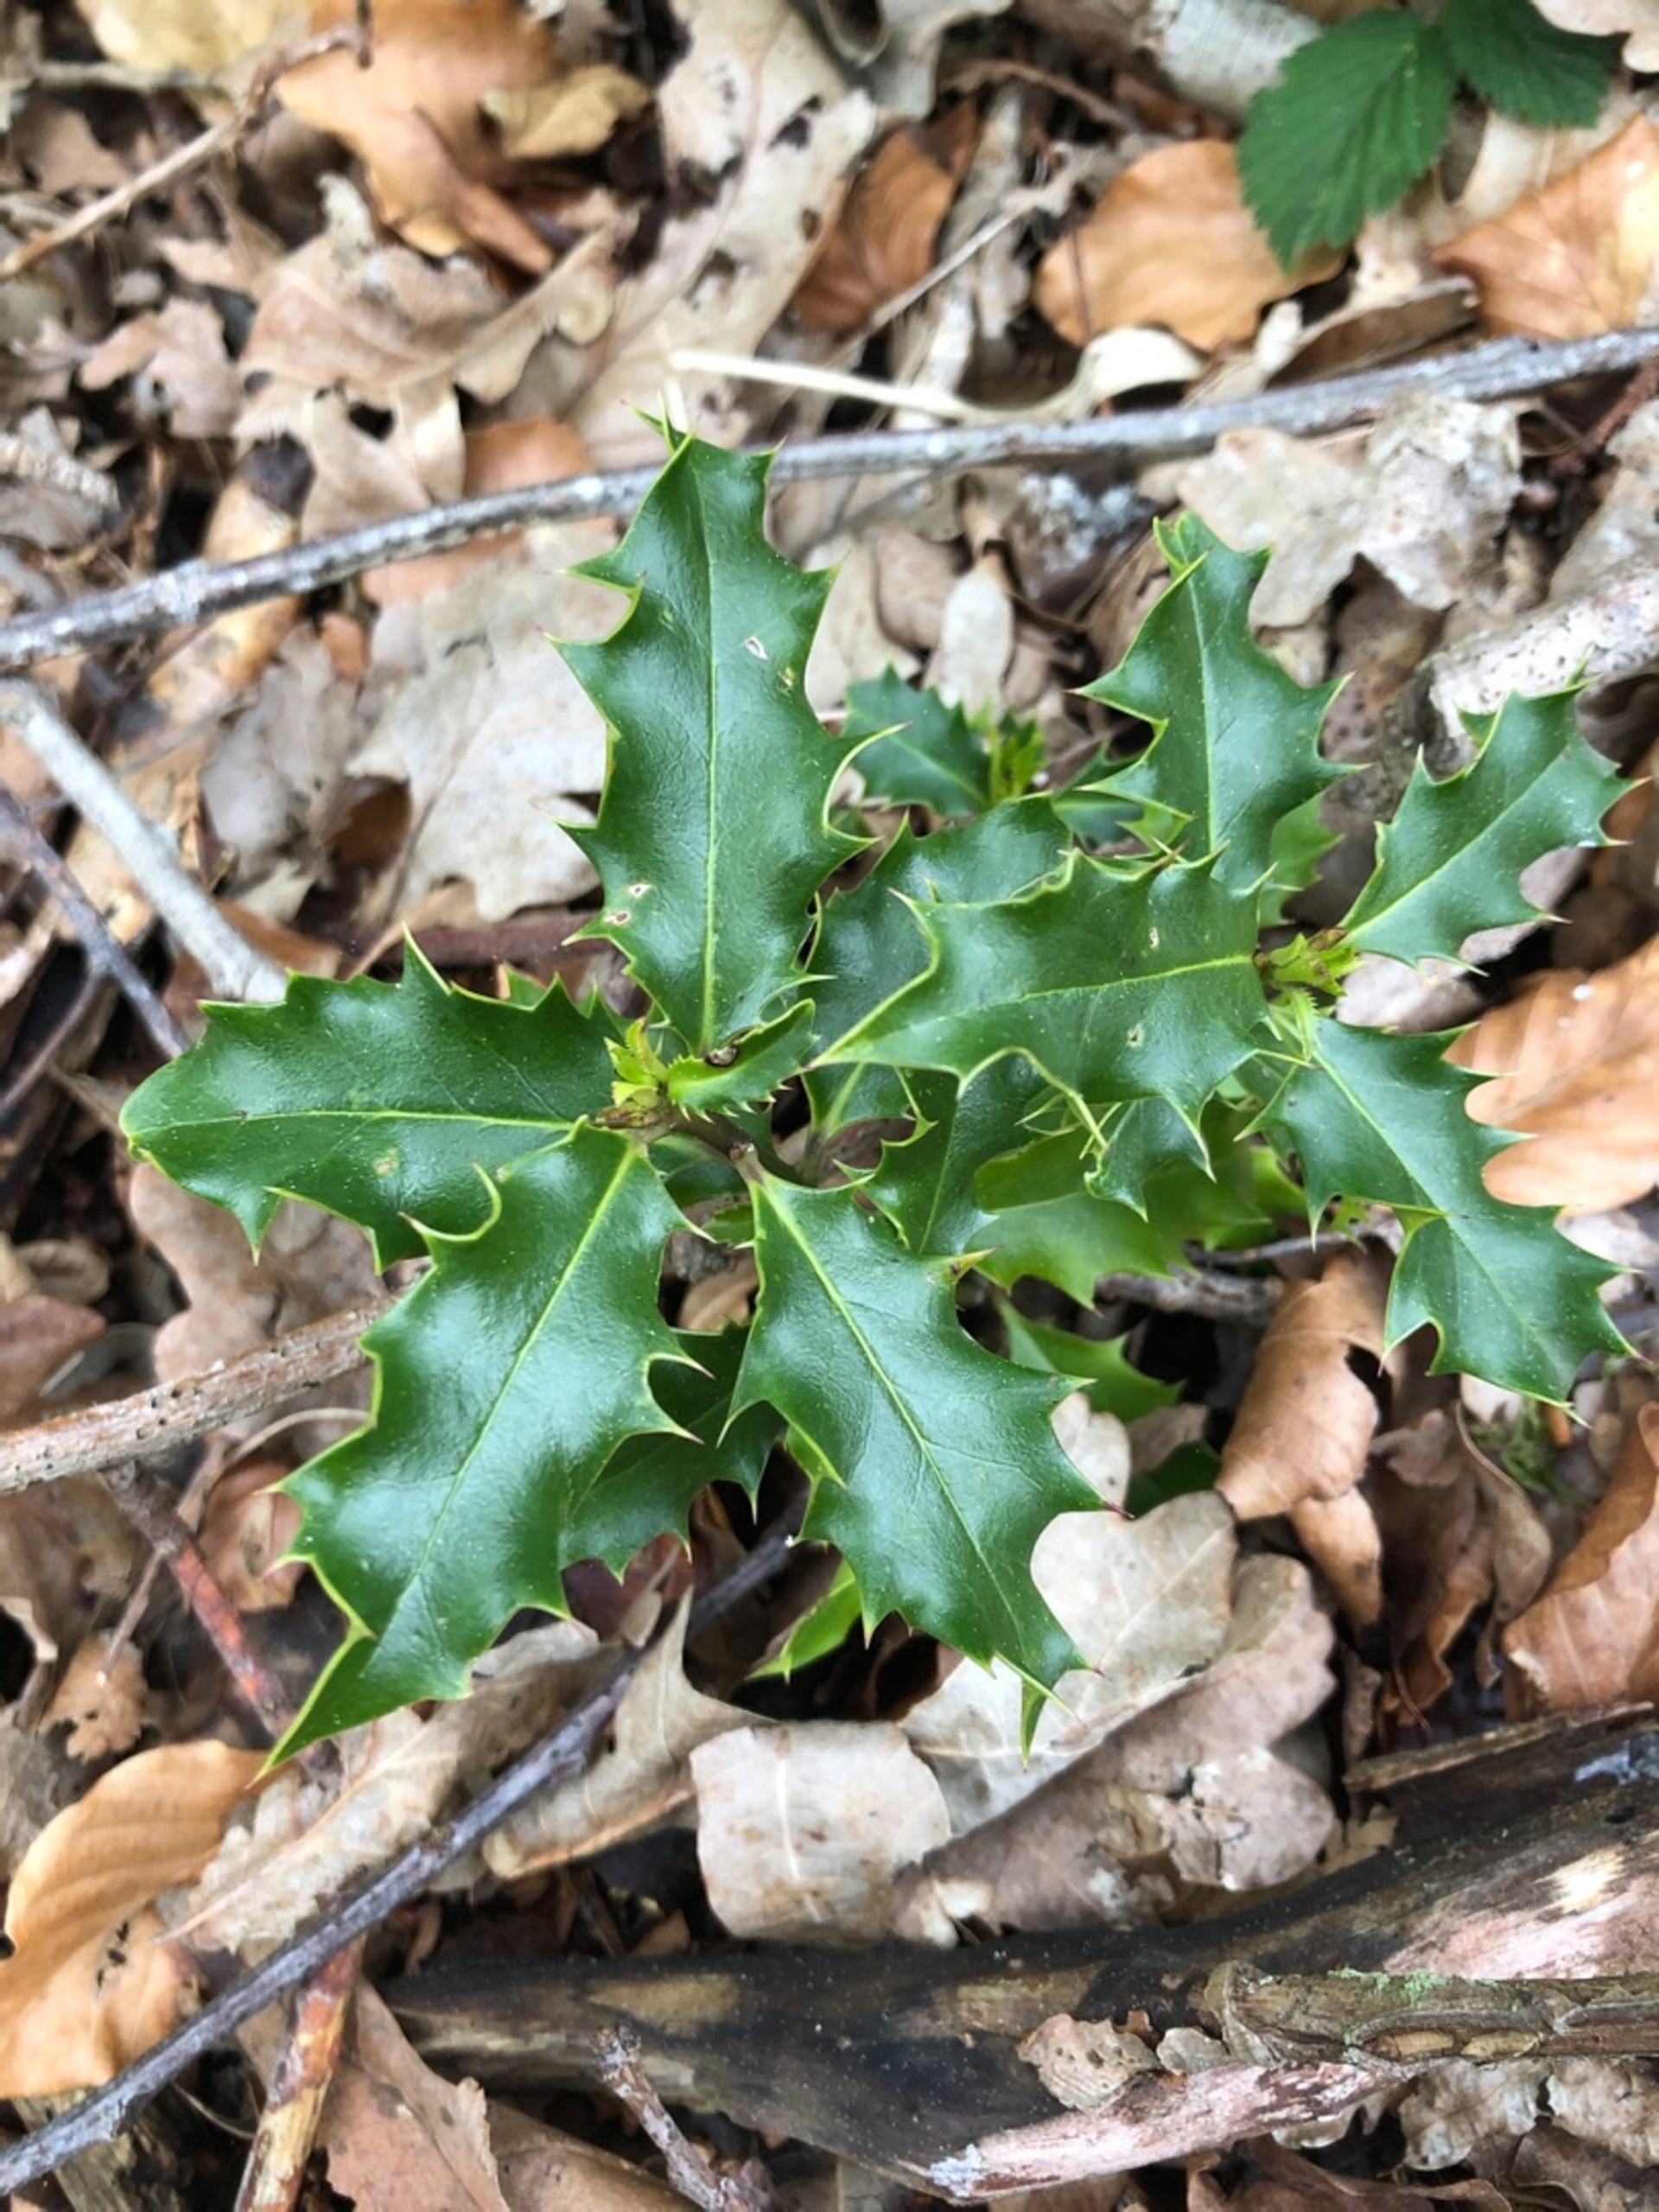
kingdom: Plantae
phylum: Tracheophyta
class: Magnoliopsida
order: Aquifoliales
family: Aquifoliaceae
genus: Ilex
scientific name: Ilex aquifolium
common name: Kristtorn
